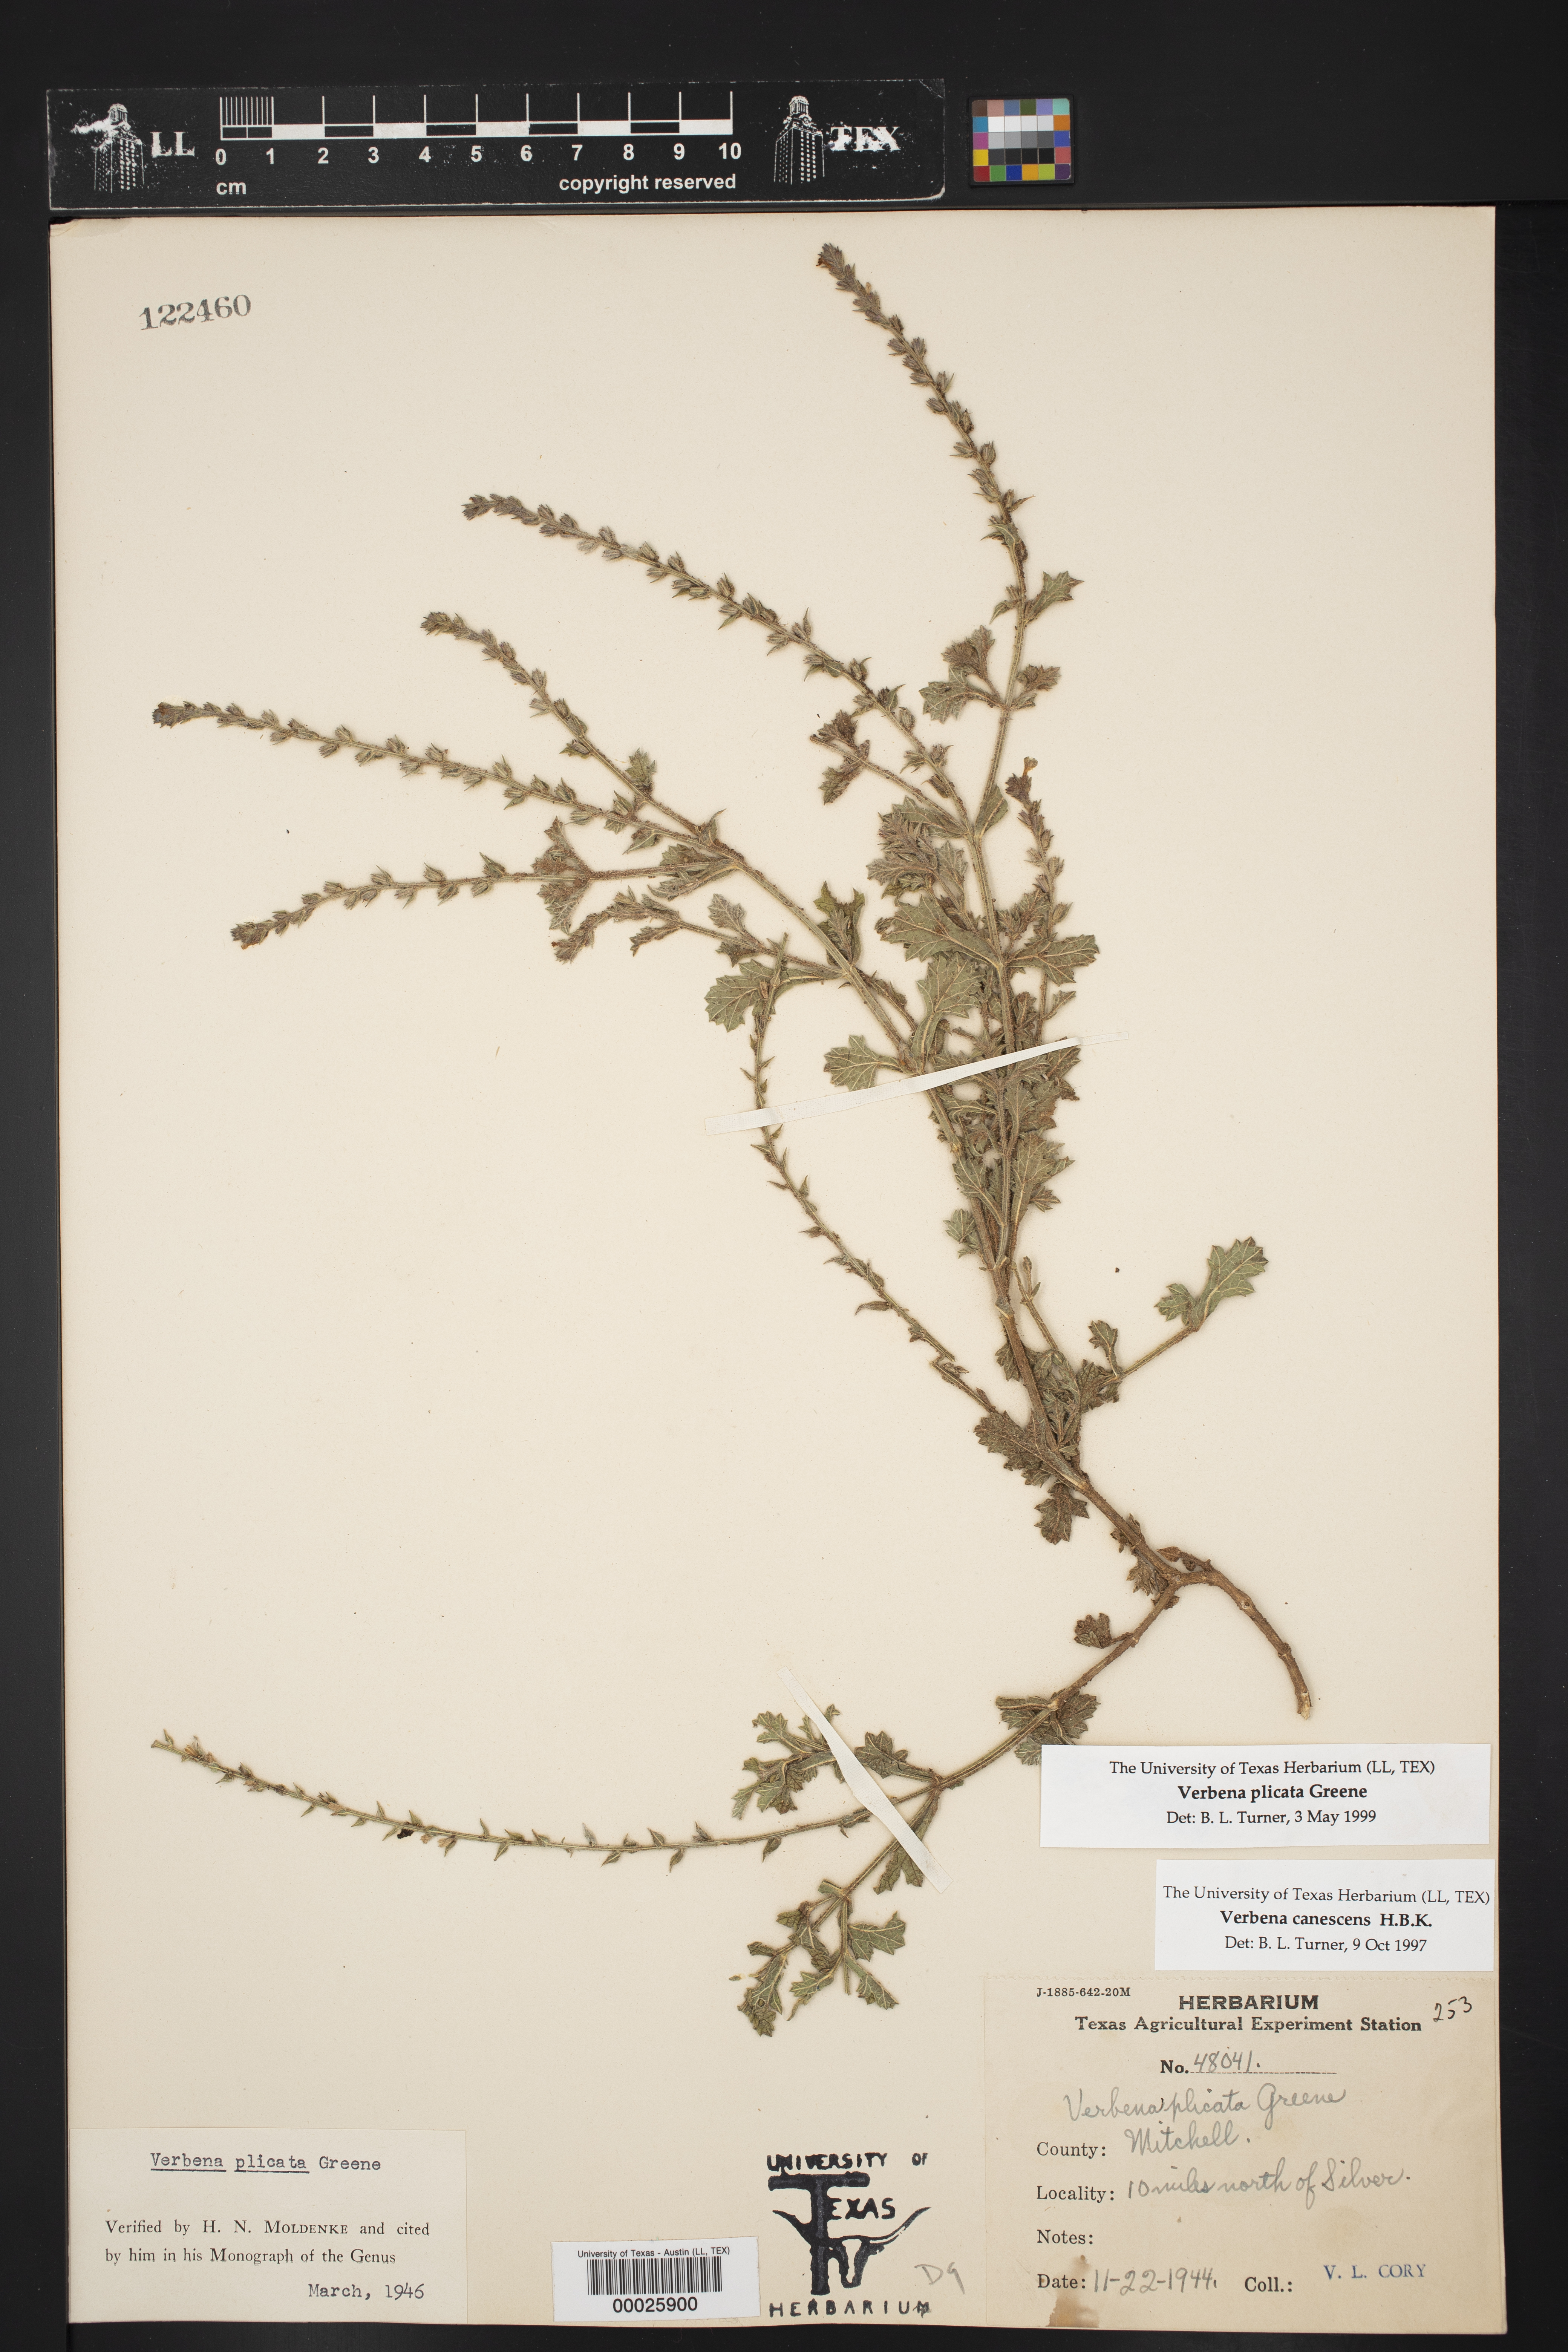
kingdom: Plantae
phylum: Tracheophyta
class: Magnoliopsida
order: Lamiales
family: Verbenaceae
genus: Verbena
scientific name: Verbena plicata
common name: Fan-leaf vervain
